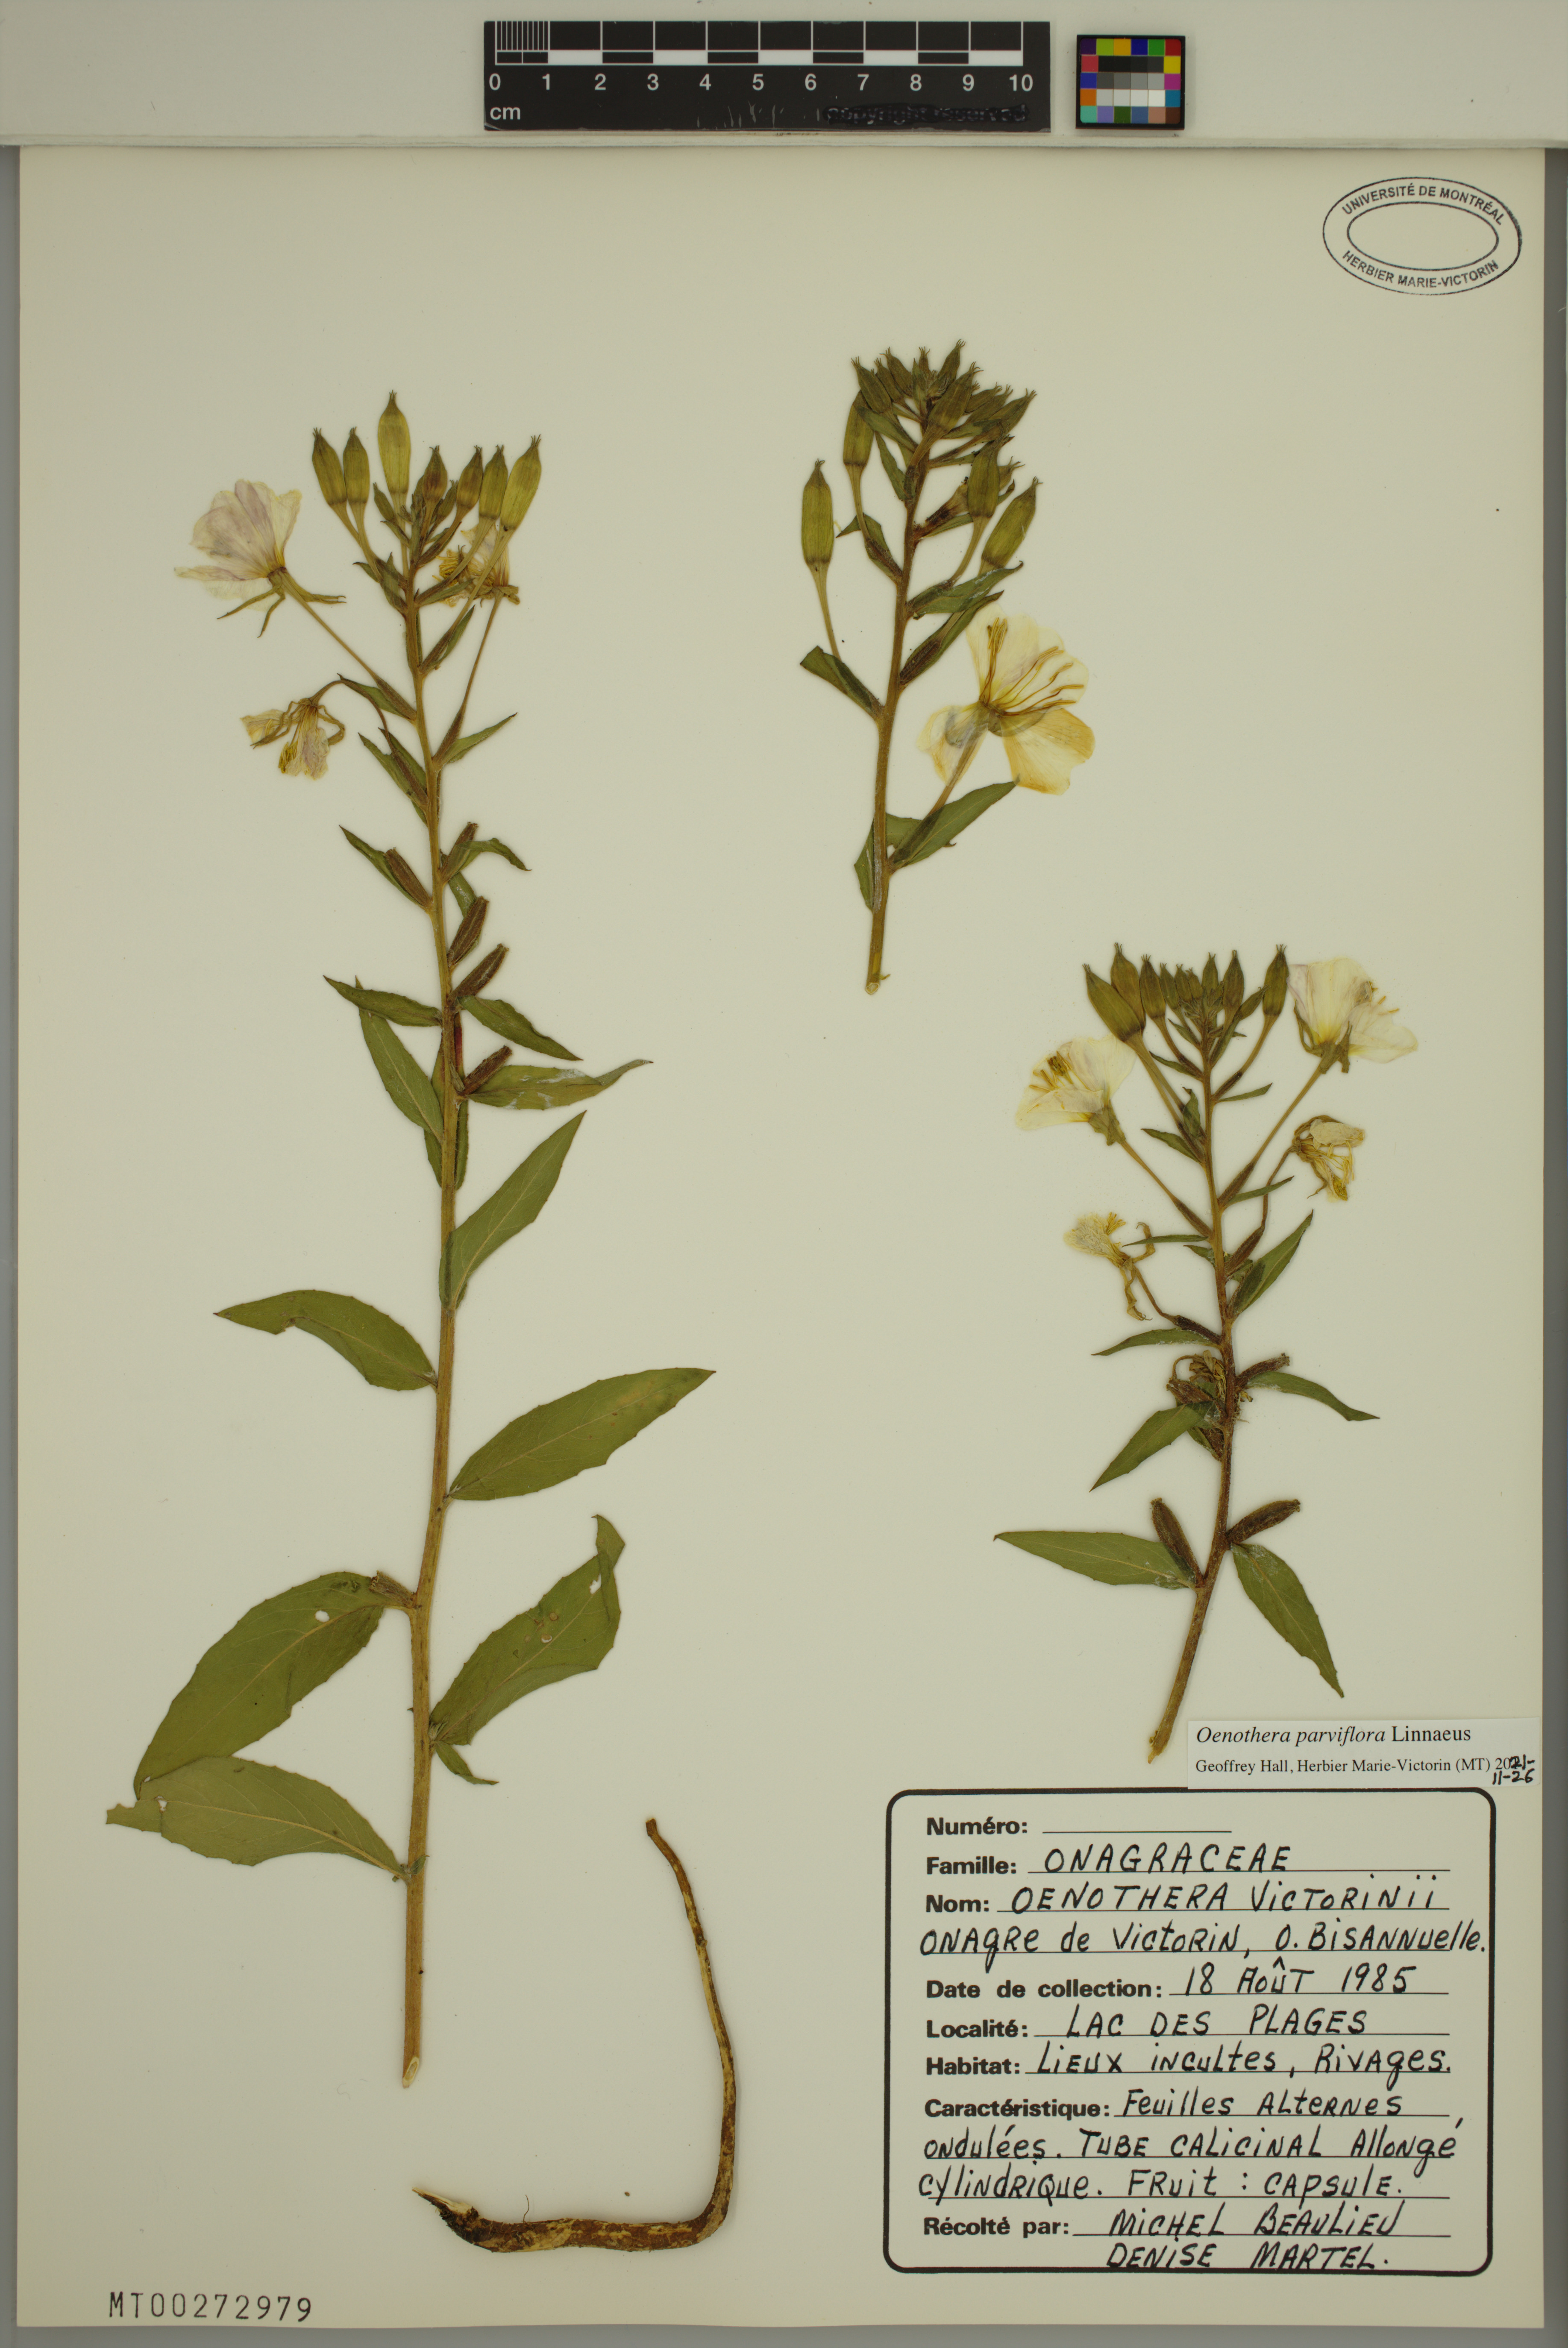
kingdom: Plantae
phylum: Tracheophyta
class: Magnoliopsida
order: Myrtales
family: Onagraceae
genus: Oenothera
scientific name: Oenothera parviflora
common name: Least evening-primrose
